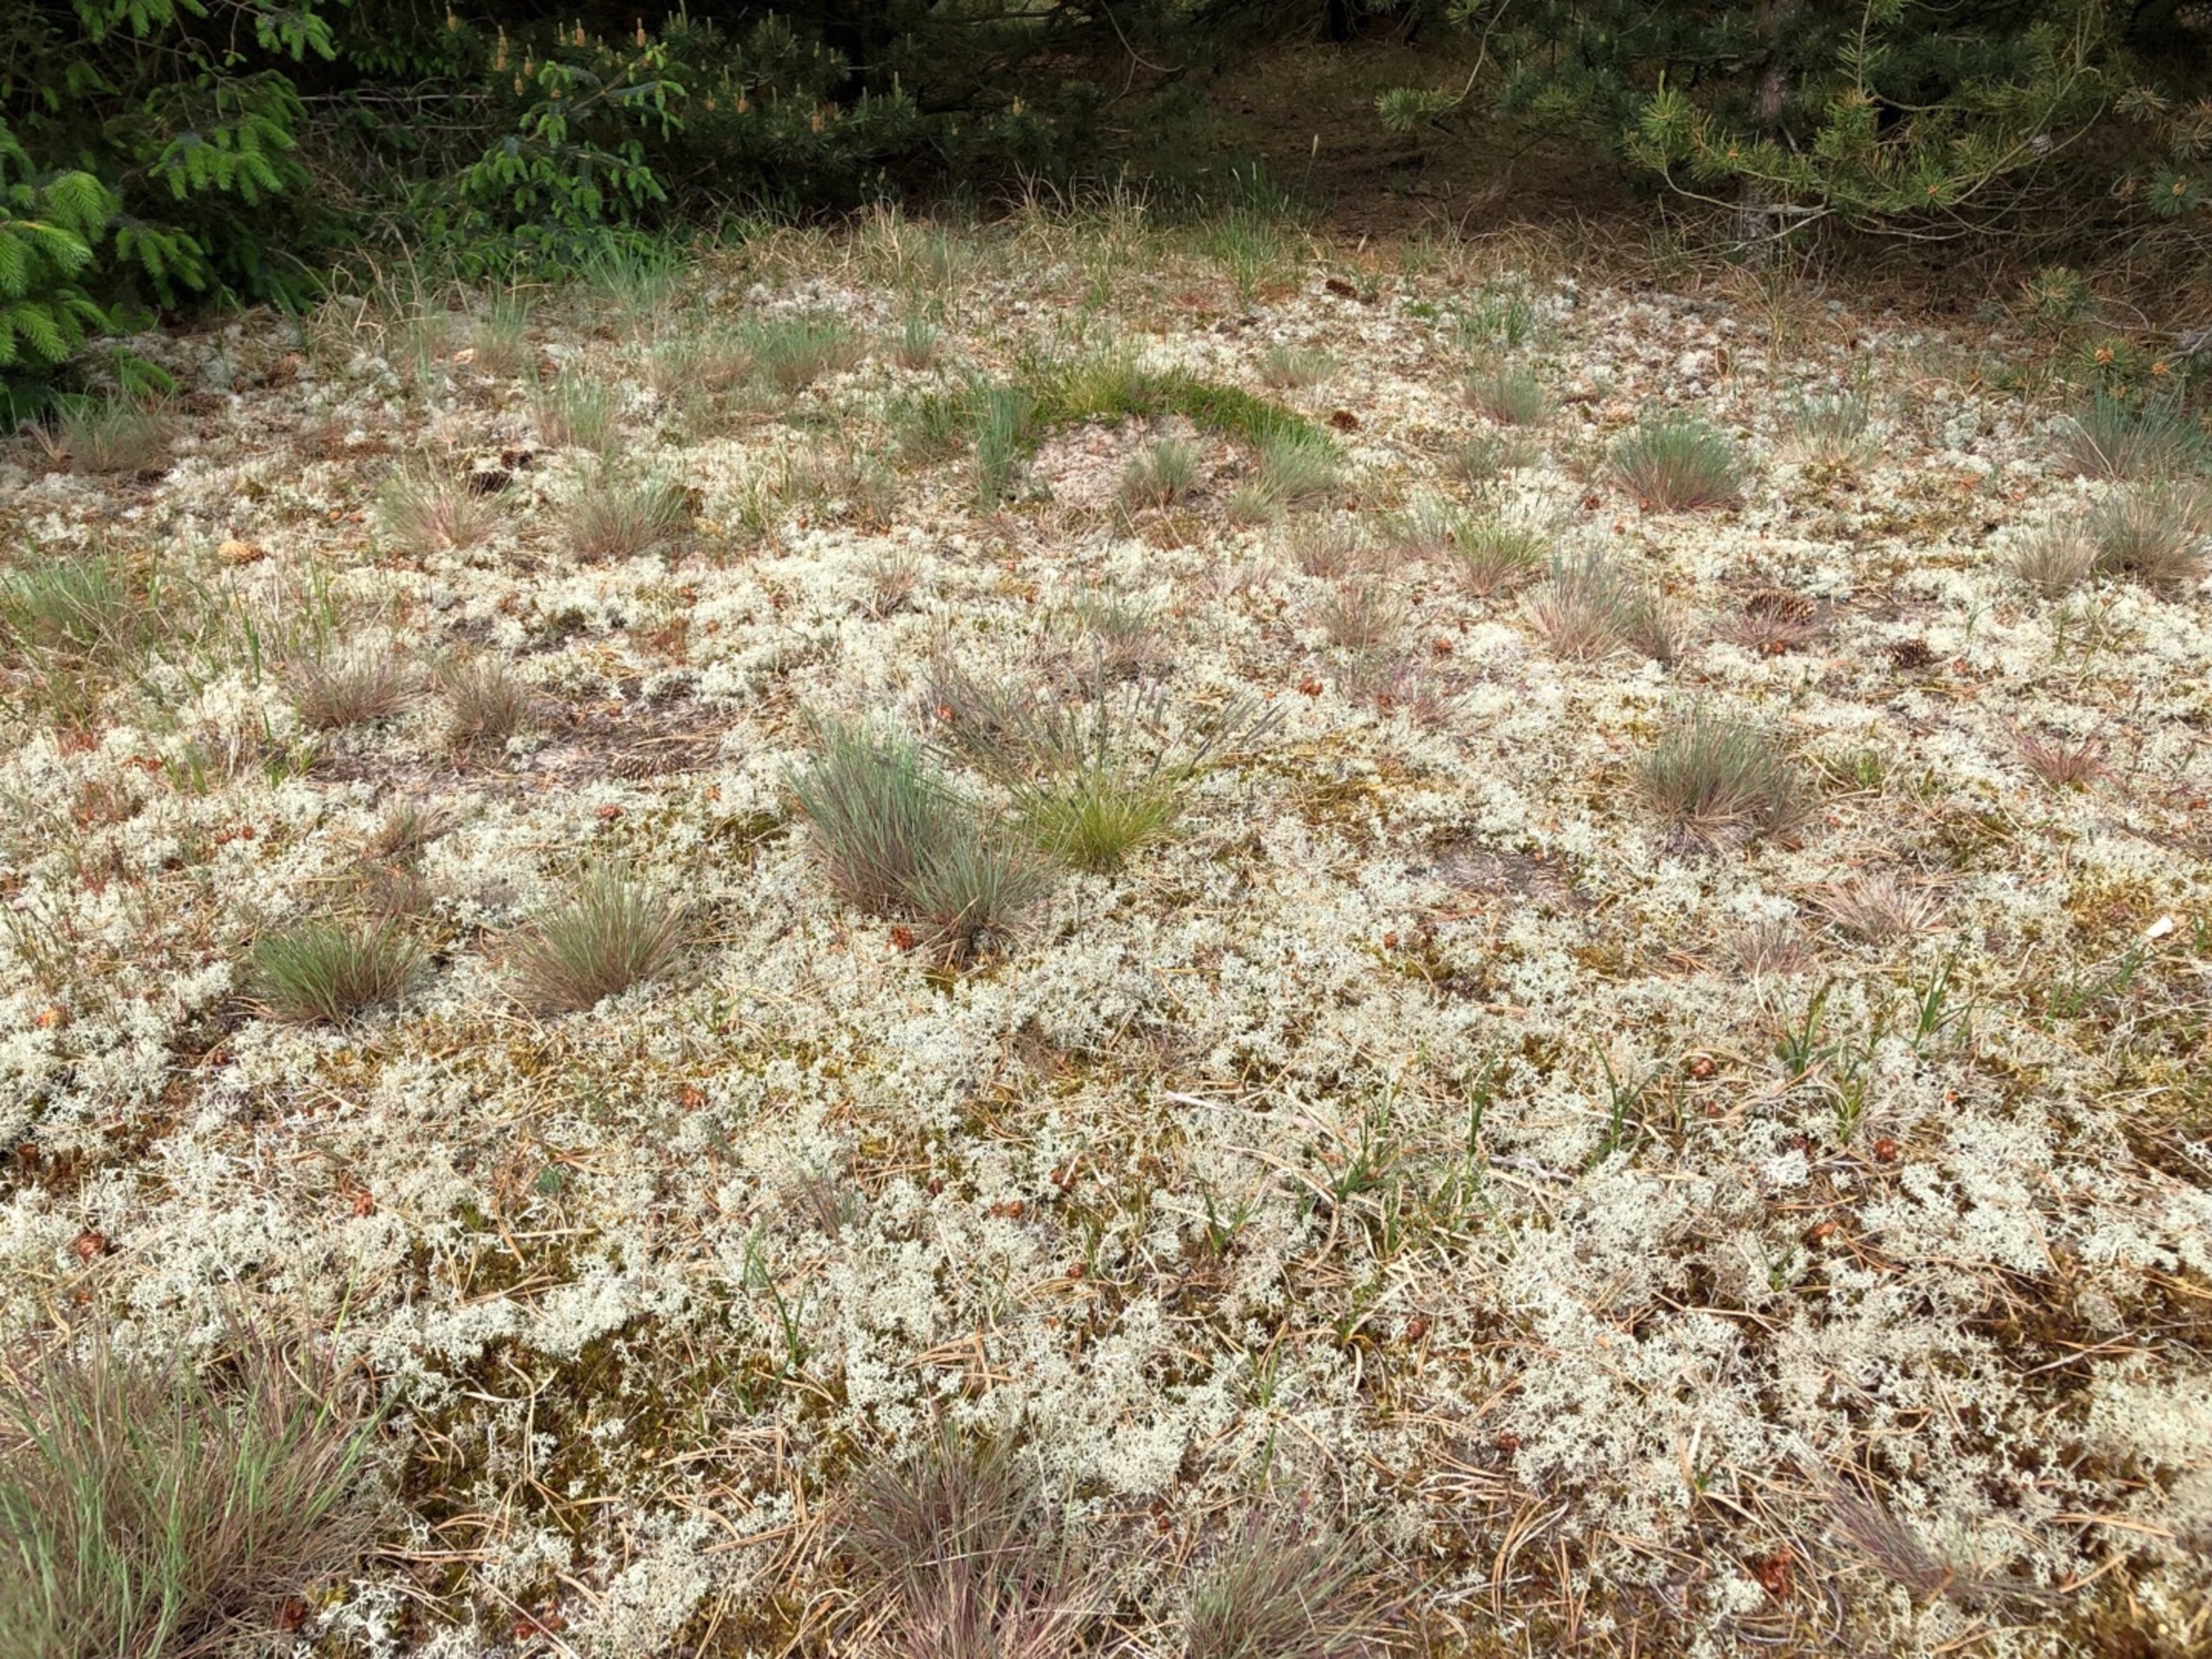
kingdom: Fungi
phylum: Ascomycota
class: Lecanoromycetes
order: Lecanorales
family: Cladoniaceae
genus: Cladonia
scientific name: Cladonia
